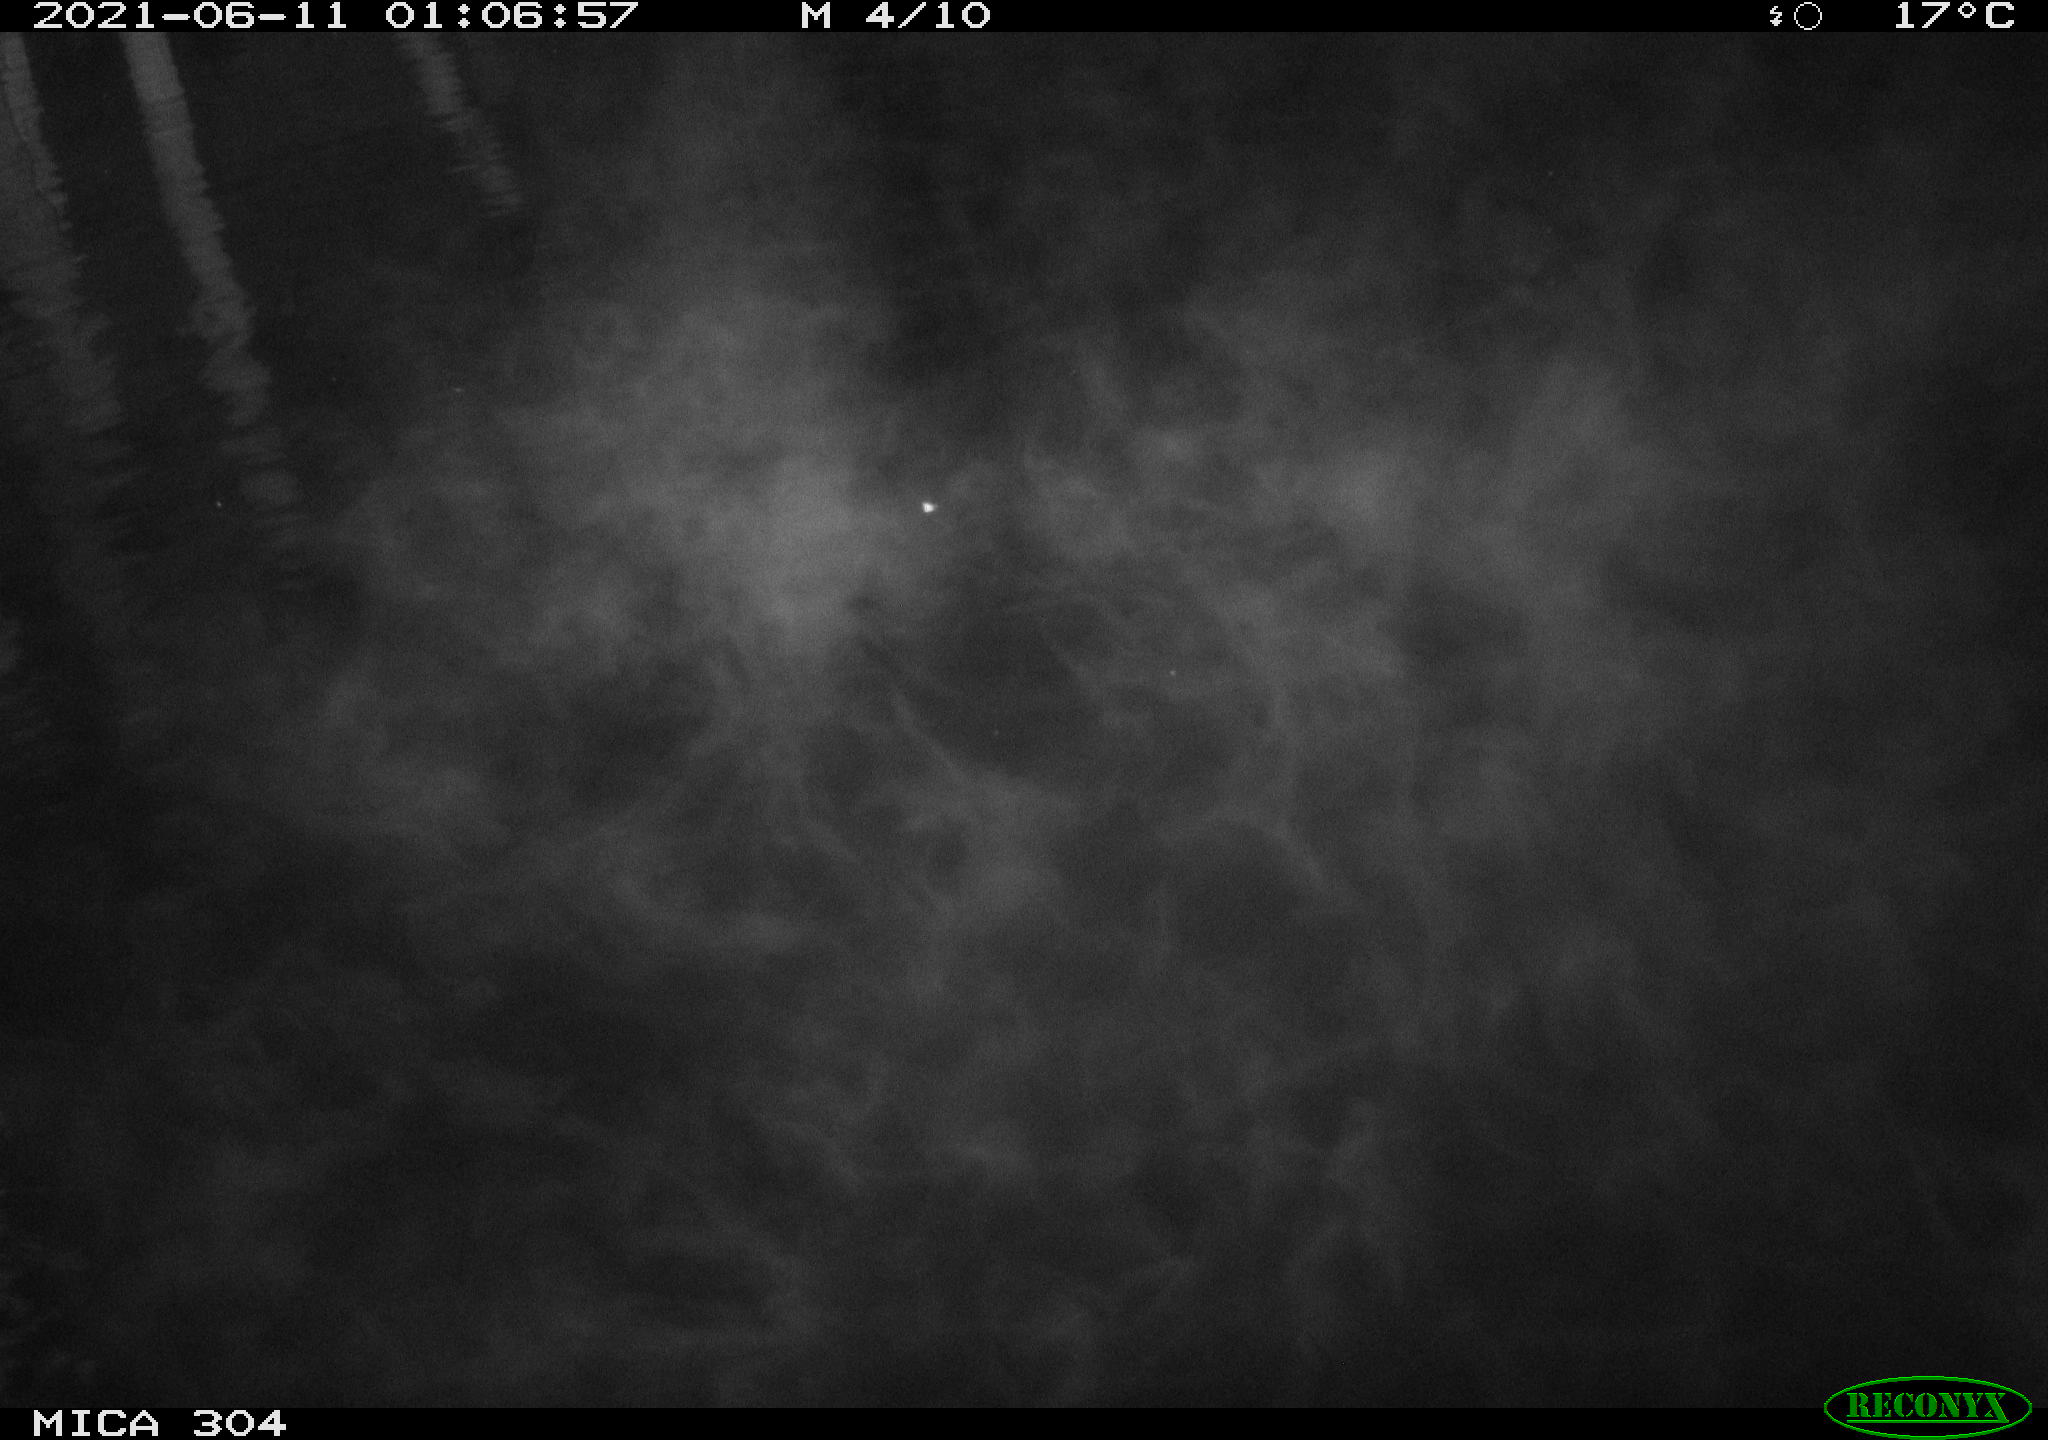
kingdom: Animalia
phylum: Chordata
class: Mammalia
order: Rodentia
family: Cricetidae
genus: Ondatra
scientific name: Ondatra zibethicus
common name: Muskrat
